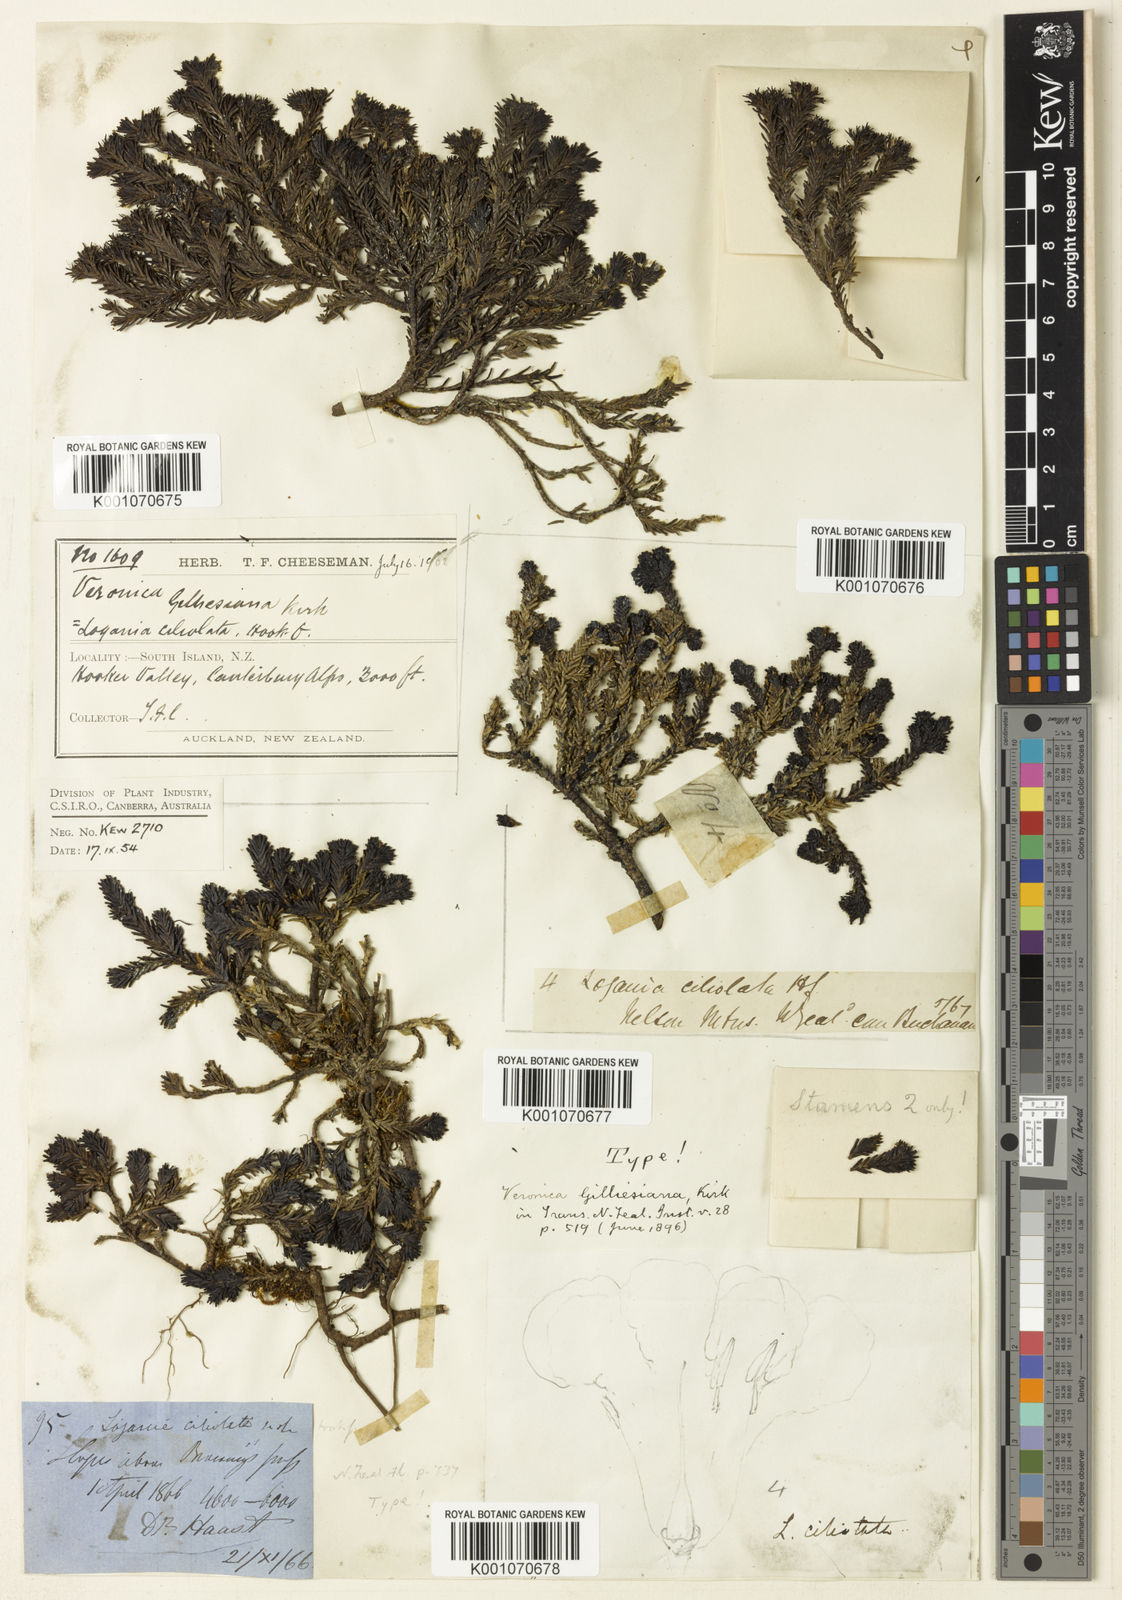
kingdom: Plantae
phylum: Tracheophyta
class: Magnoliopsida
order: Lamiales
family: Plantaginaceae
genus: Veronica
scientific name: Veronica ciliolata
